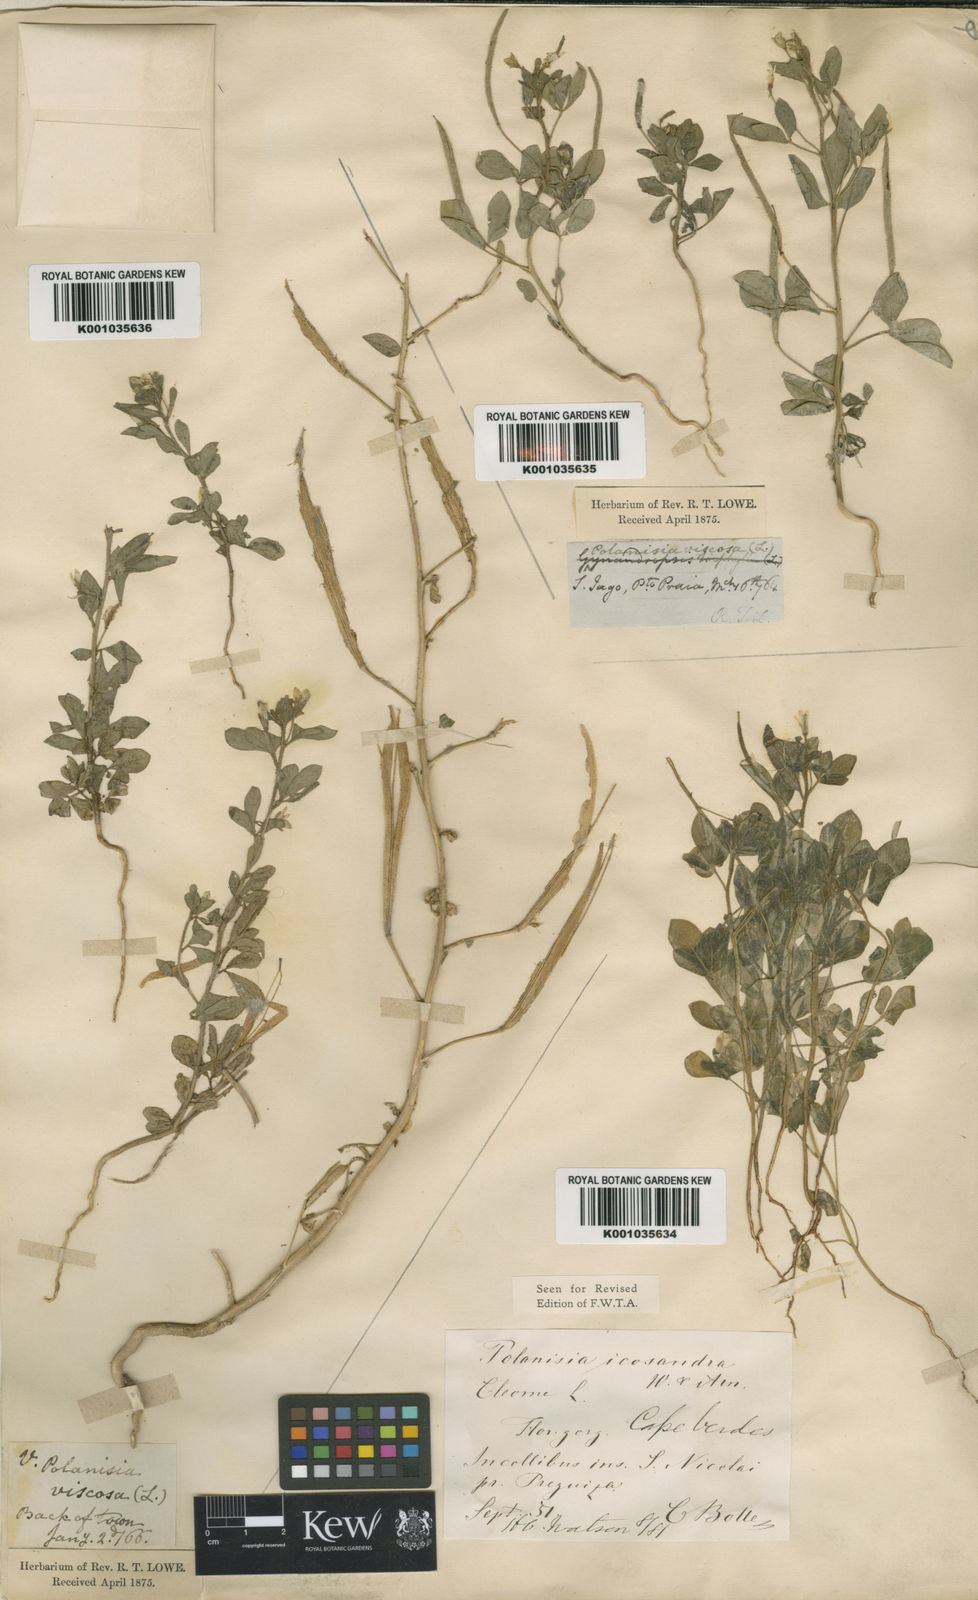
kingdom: Plantae
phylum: Tracheophyta
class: Magnoliopsida
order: Brassicales
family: Cleomaceae
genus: Arivela
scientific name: Arivela viscosa
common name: Asian spiderflower
